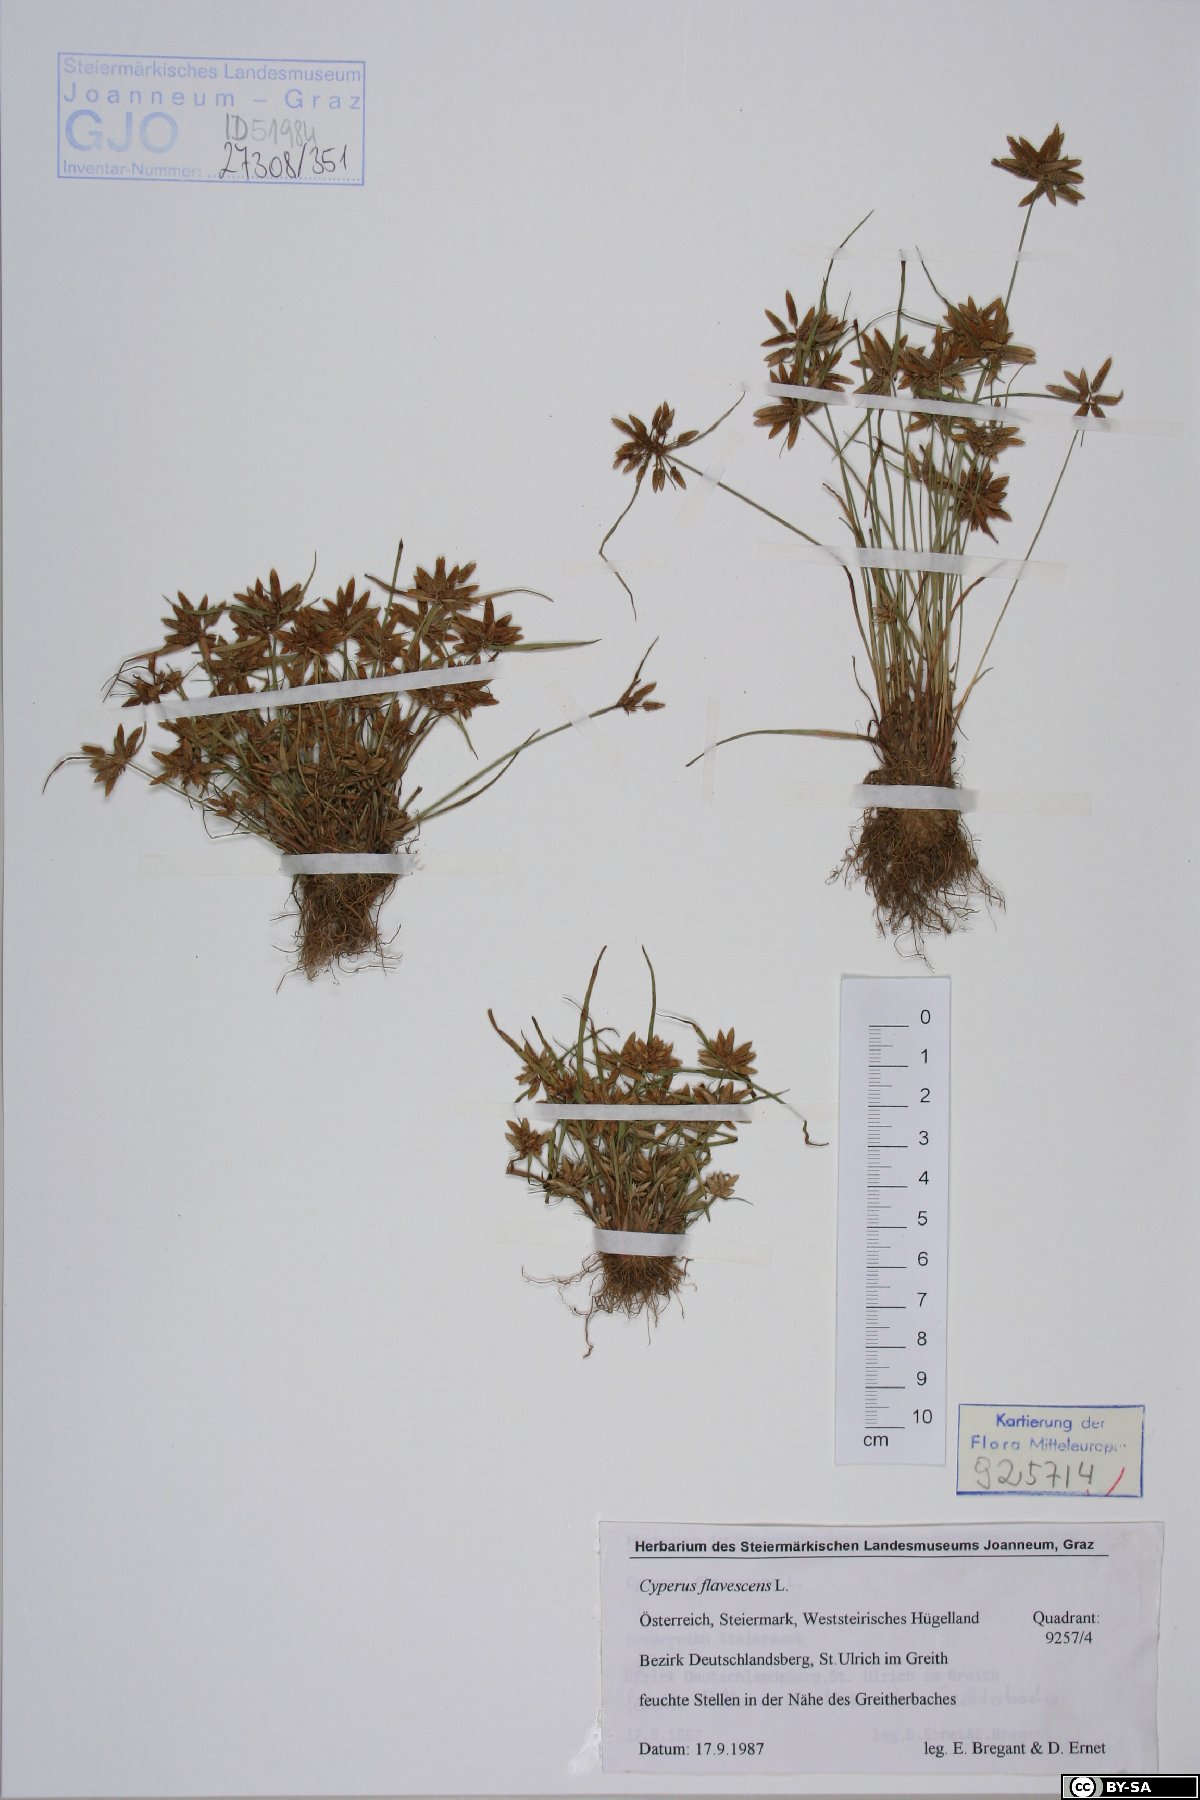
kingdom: Plantae
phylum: Tracheophyta
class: Liliopsida
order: Poales
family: Cyperaceae
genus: Cyperus
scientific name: Cyperus flavescens
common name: Yellow galingale
